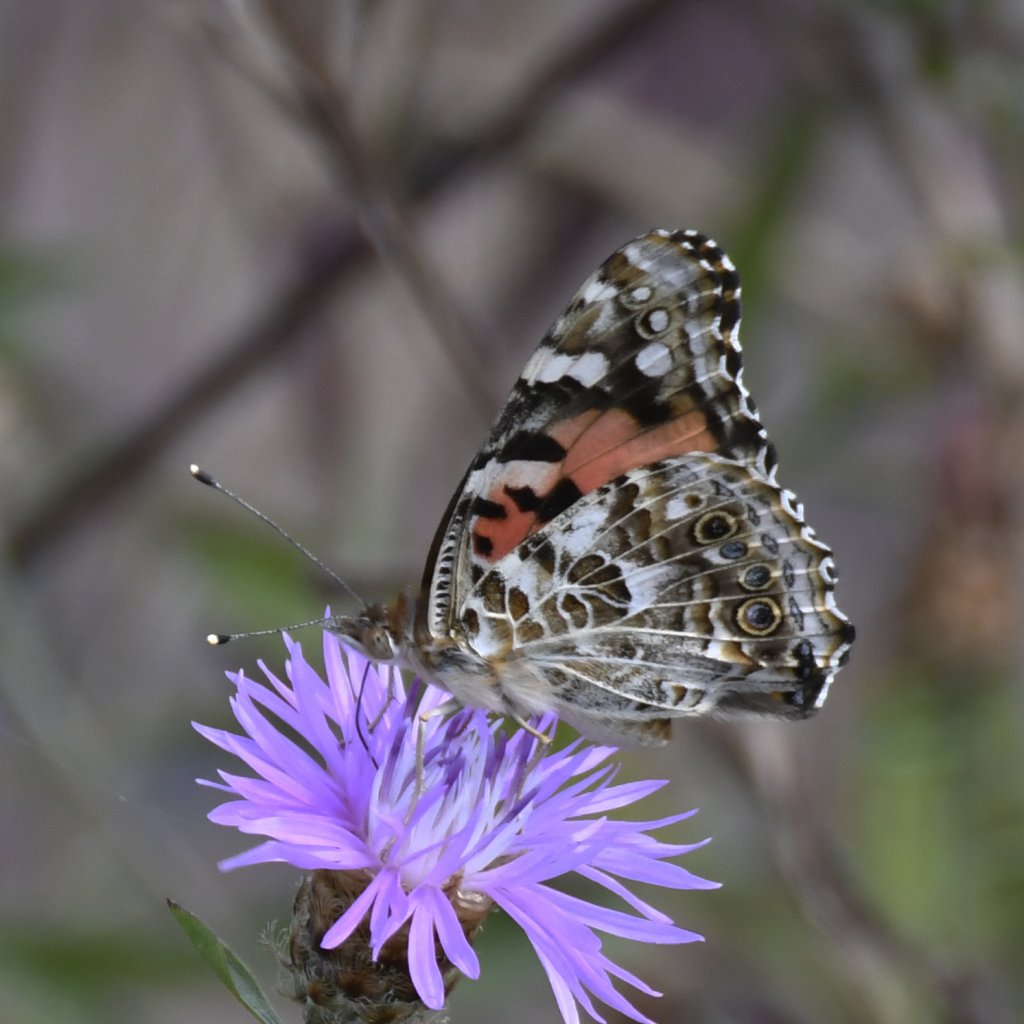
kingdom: Animalia
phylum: Arthropoda
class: Insecta
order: Lepidoptera
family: Nymphalidae
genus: Vanessa
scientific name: Vanessa cardui
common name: Painted Lady
